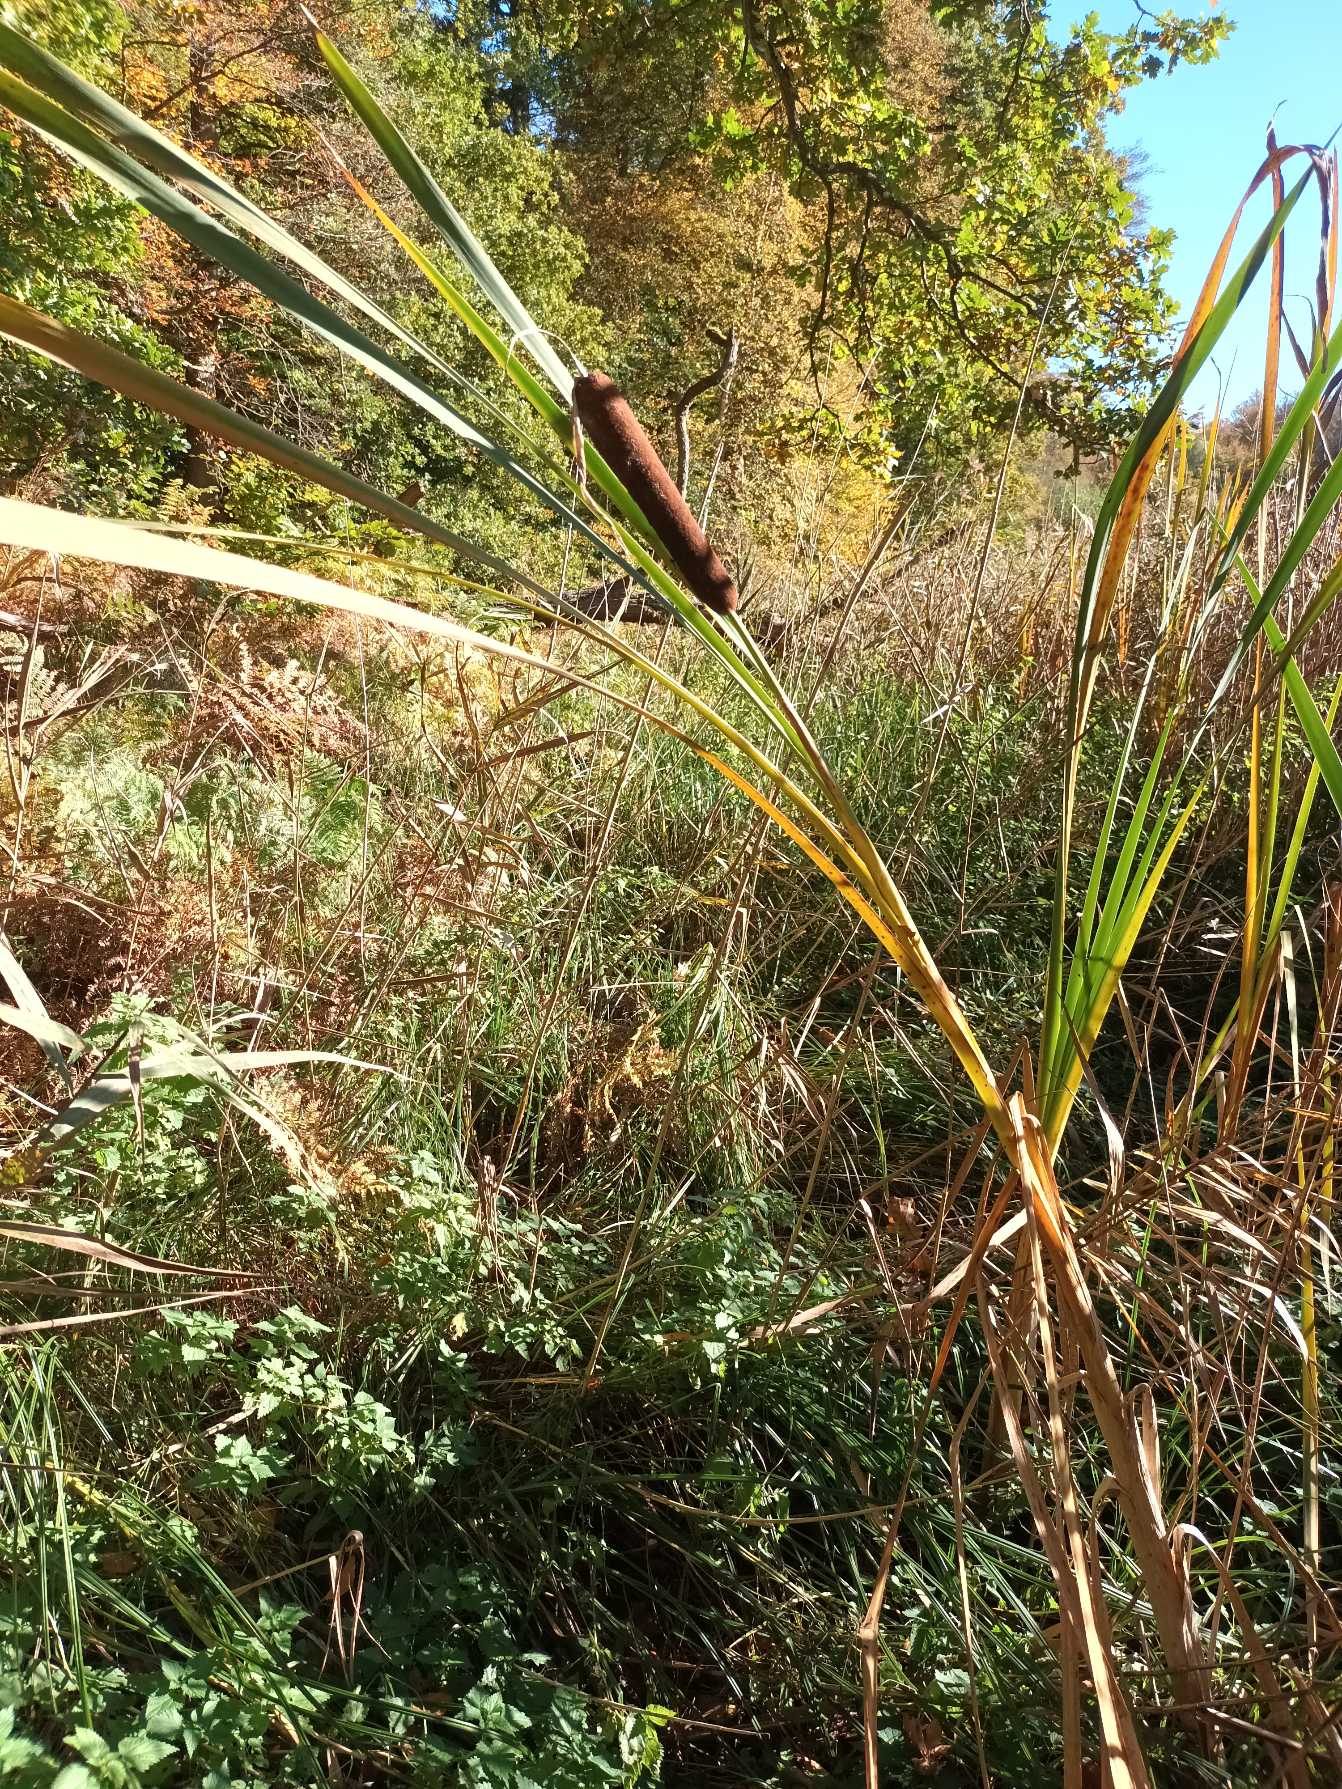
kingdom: Plantae
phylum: Tracheophyta
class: Liliopsida
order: Poales
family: Typhaceae
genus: Typha
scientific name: Typha latifolia
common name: Bredbladet dunhammer
